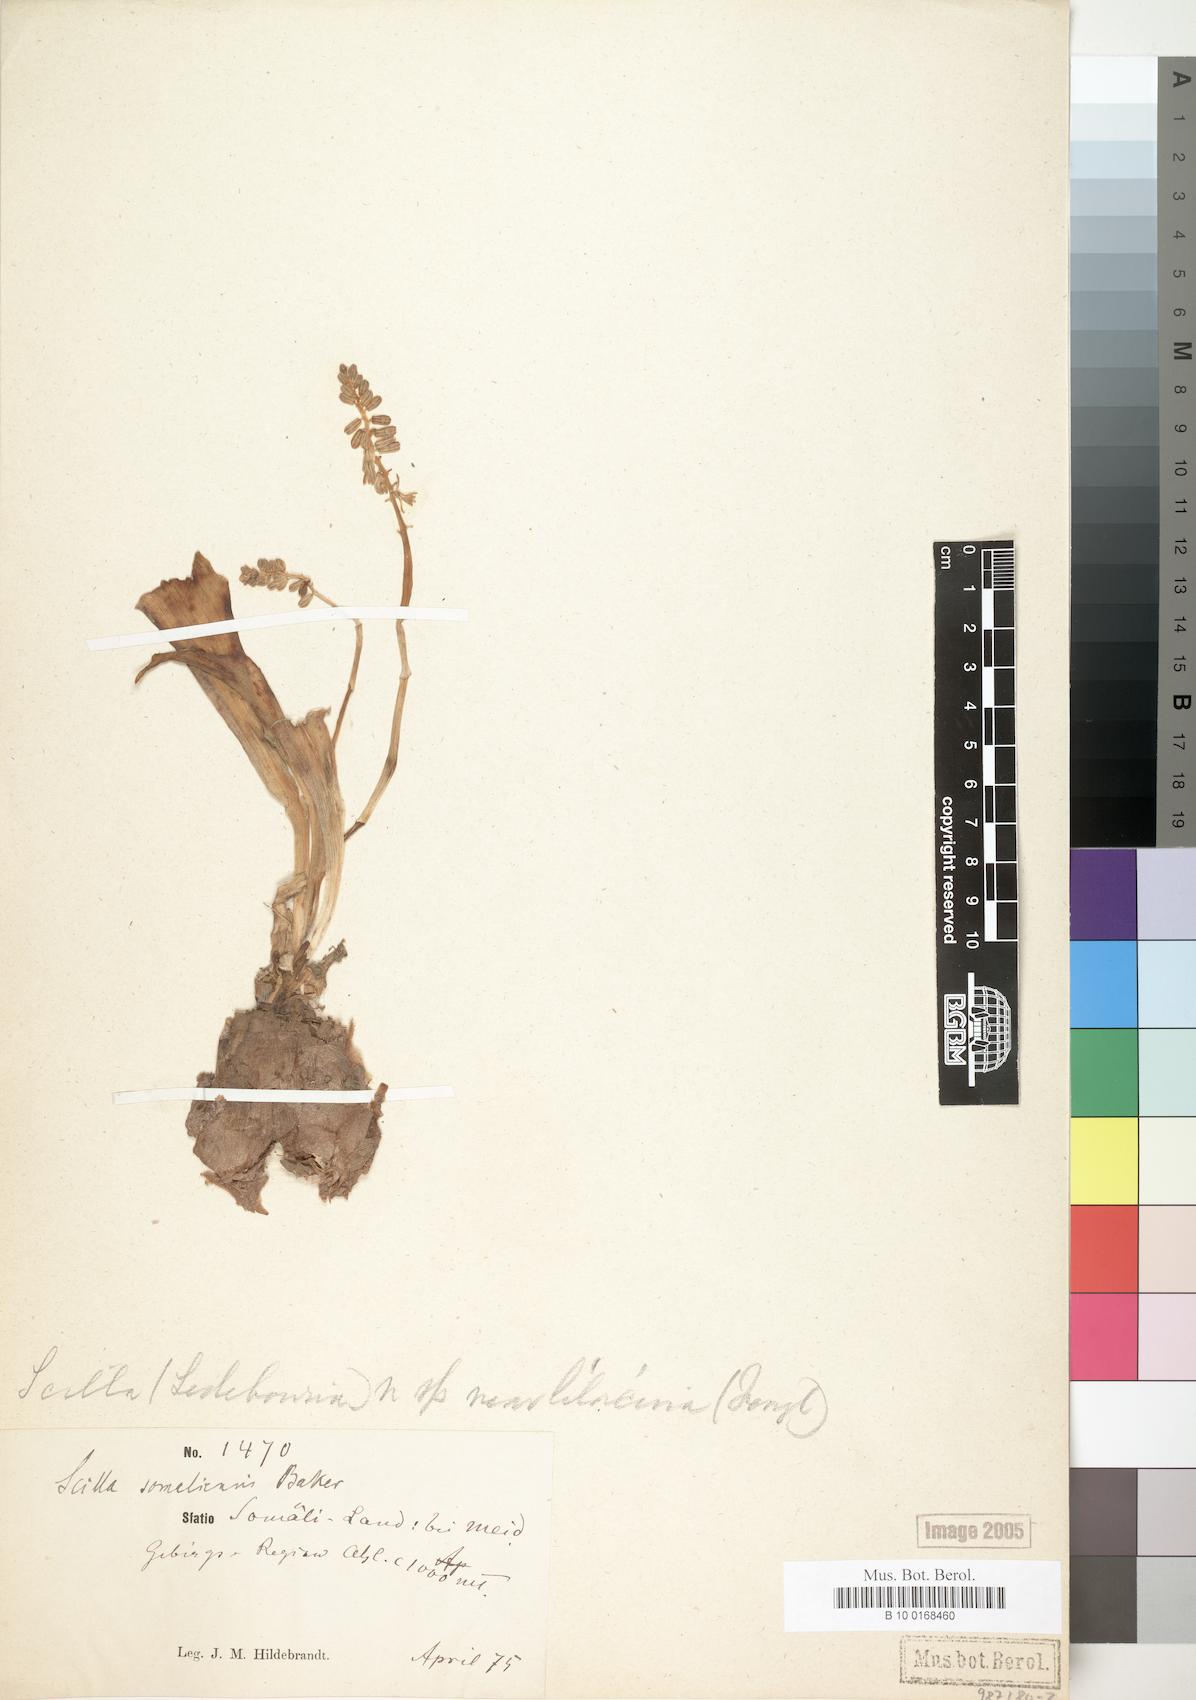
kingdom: Plantae
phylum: Tracheophyta
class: Liliopsida
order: Asparagales
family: Asparagaceae
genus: Ledebouria
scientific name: Ledebouria somaliensis
